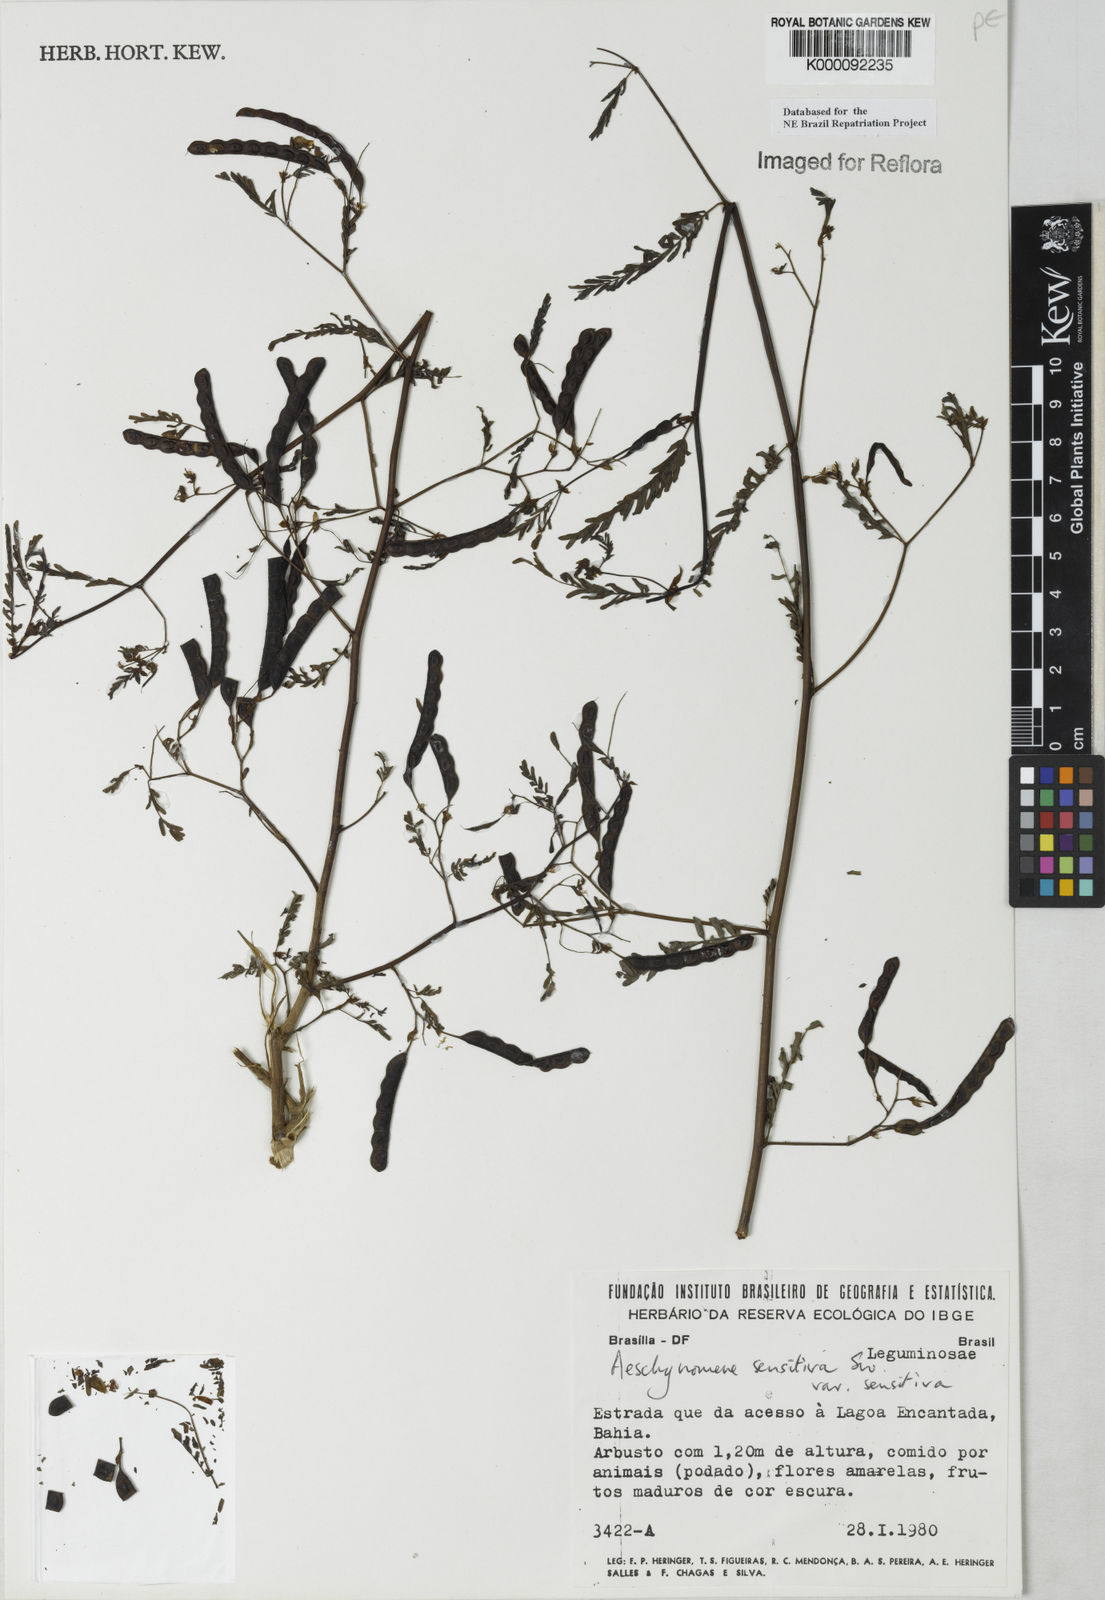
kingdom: Plantae
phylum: Tracheophyta
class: Magnoliopsida
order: Fabales
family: Fabaceae
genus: Aeschynomene
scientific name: Aeschynomene sensitiva
